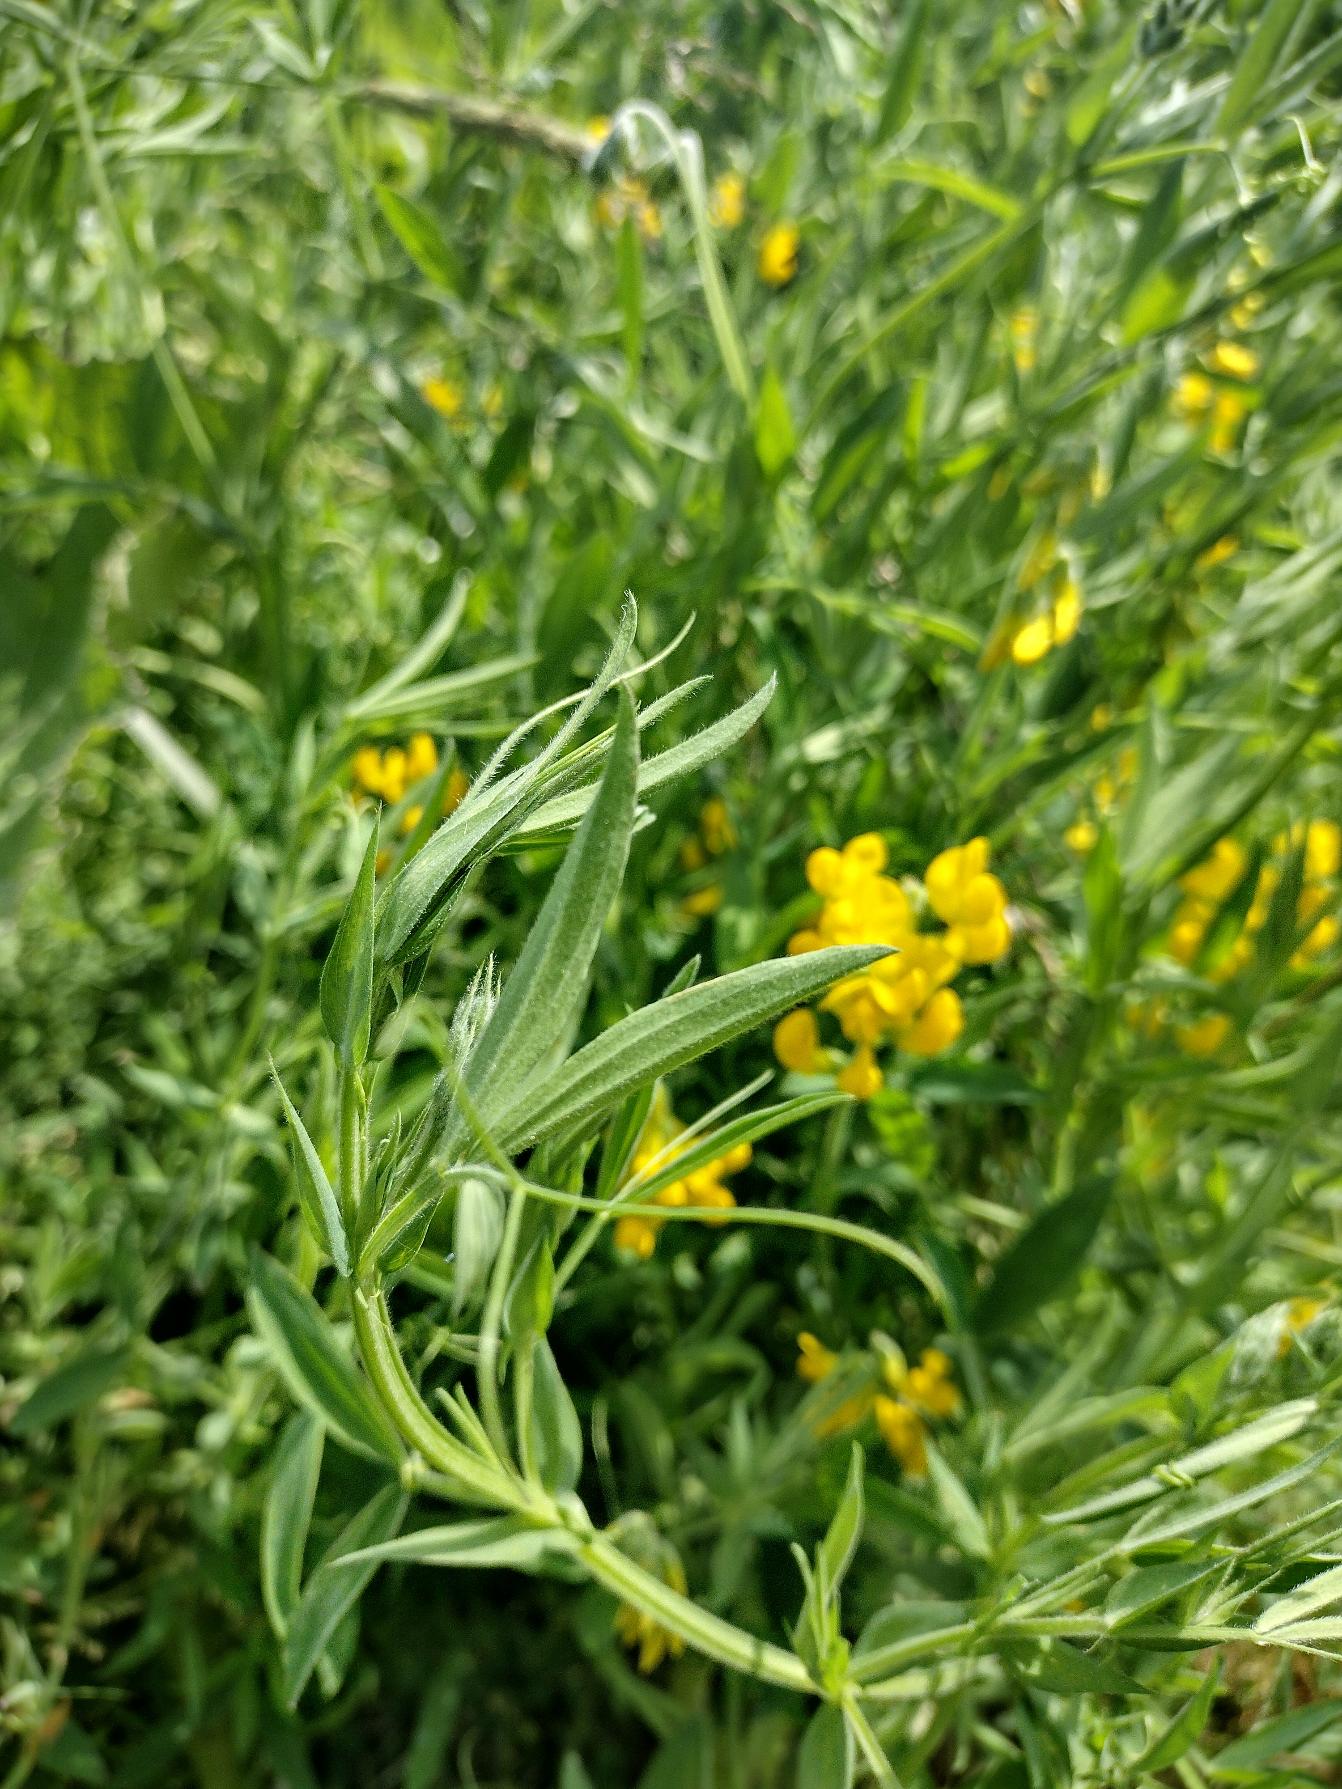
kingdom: Plantae
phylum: Tracheophyta
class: Magnoliopsida
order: Fabales
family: Fabaceae
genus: Lathyrus
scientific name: Lathyrus pratensis
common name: Gul fladbælg
